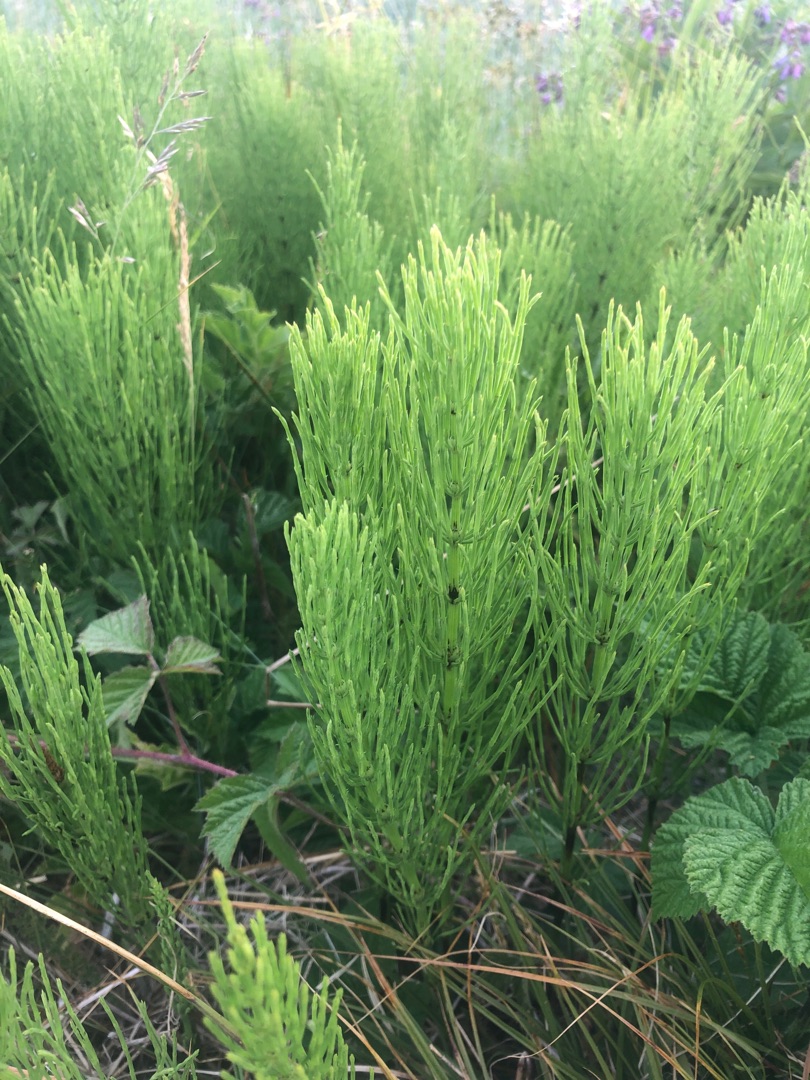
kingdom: Plantae
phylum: Tracheophyta
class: Polypodiopsida
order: Equisetales
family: Equisetaceae
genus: Equisetum
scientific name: Equisetum arvense
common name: Ager-padderok
